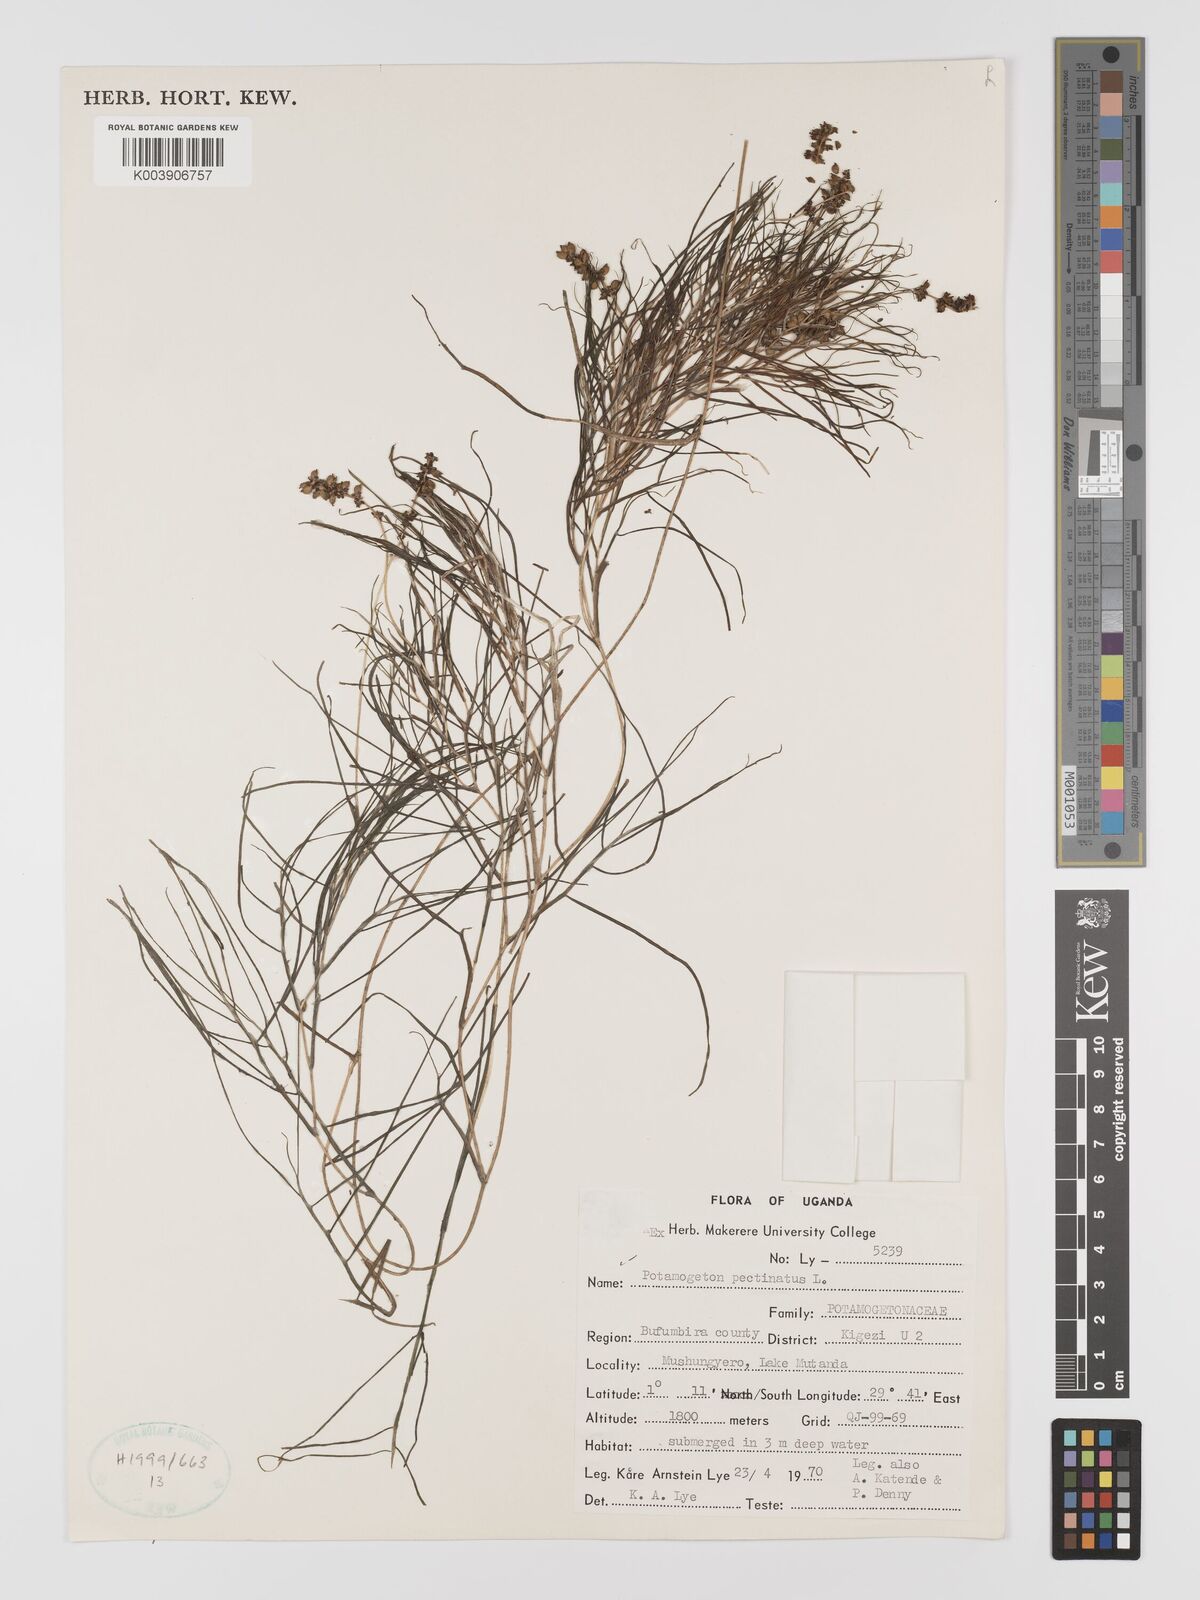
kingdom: Plantae
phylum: Tracheophyta
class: Liliopsida
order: Alismatales
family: Potamogetonaceae
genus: Stuckenia
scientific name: Stuckenia pectinata
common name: Sago pondweed
